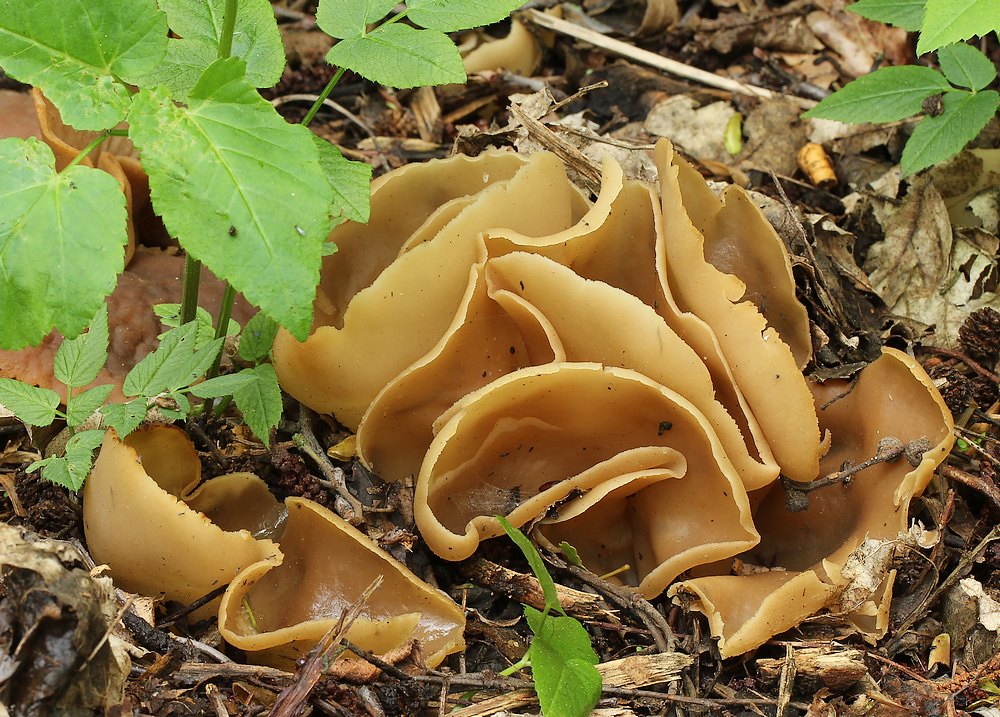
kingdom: Fungi
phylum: Ascomycota
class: Pezizomycetes
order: Pezizales
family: Pezizaceae
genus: Peziza
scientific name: Peziza varia
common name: Ved-bægersvamp
